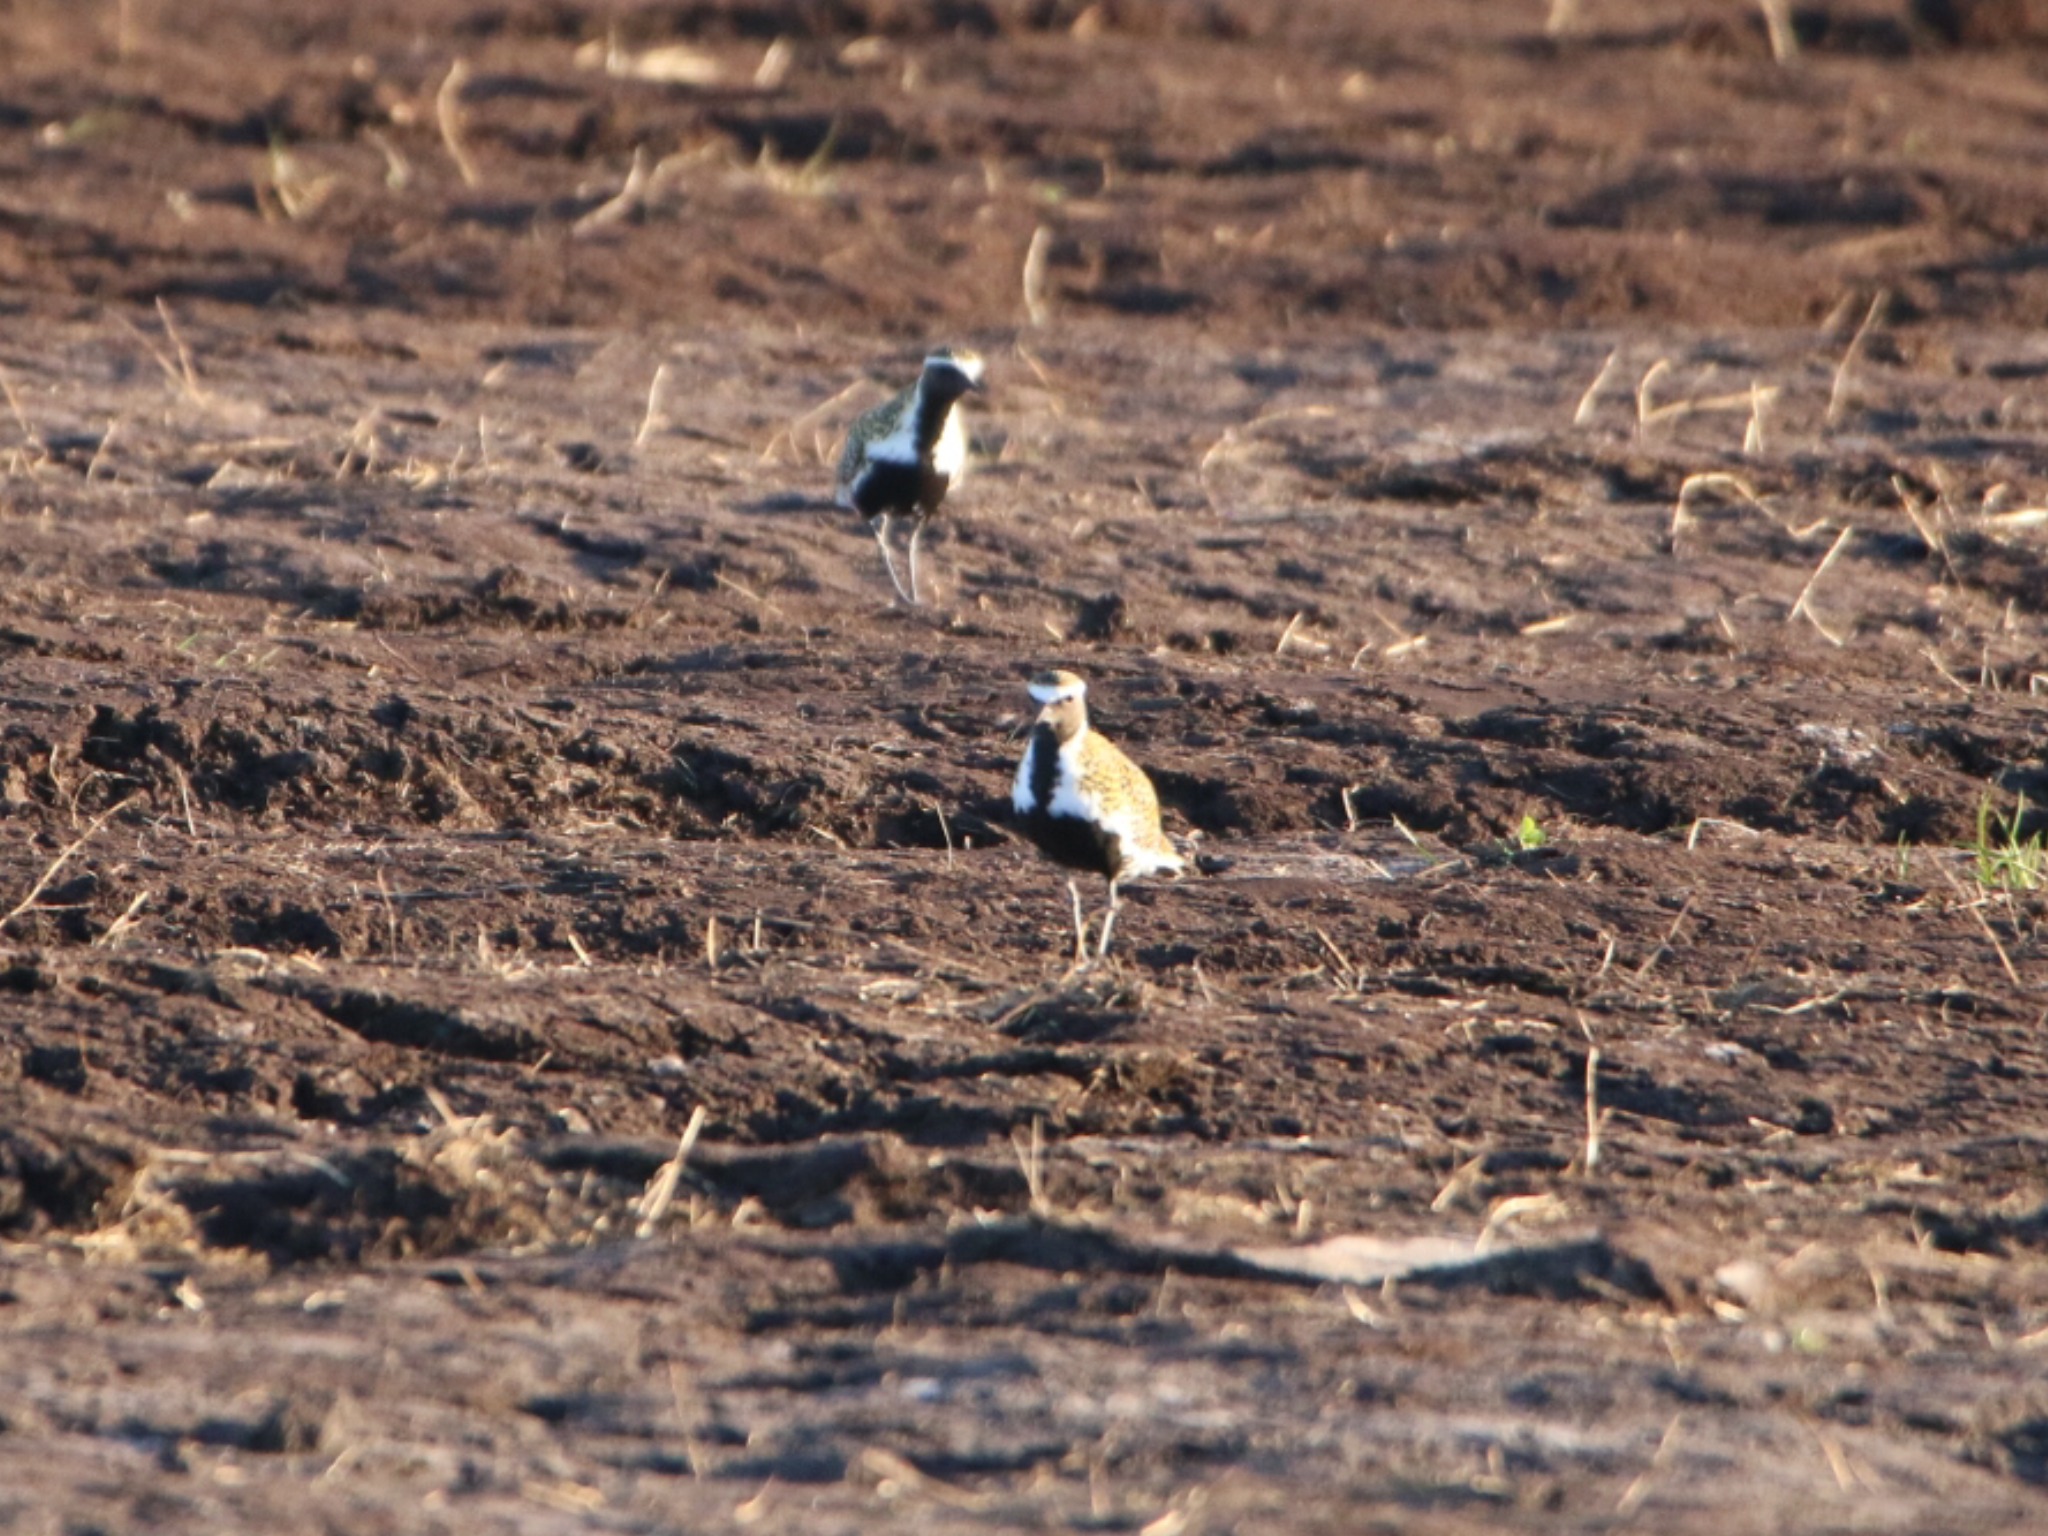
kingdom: Animalia
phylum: Chordata
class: Aves
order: Charadriiformes
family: Charadriidae
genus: Pluvialis
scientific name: Pluvialis apricaria
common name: Hjejle
